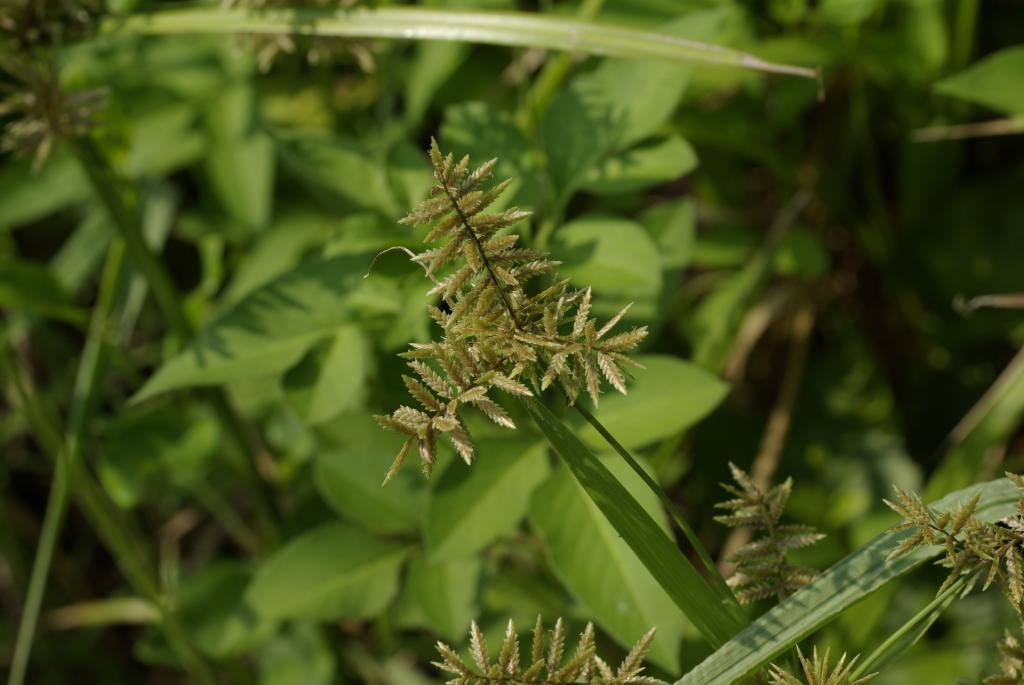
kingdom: Plantae
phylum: Tracheophyta
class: Liliopsida
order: Poales
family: Cyperaceae
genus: Cyperus
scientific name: Cyperus pilosus
